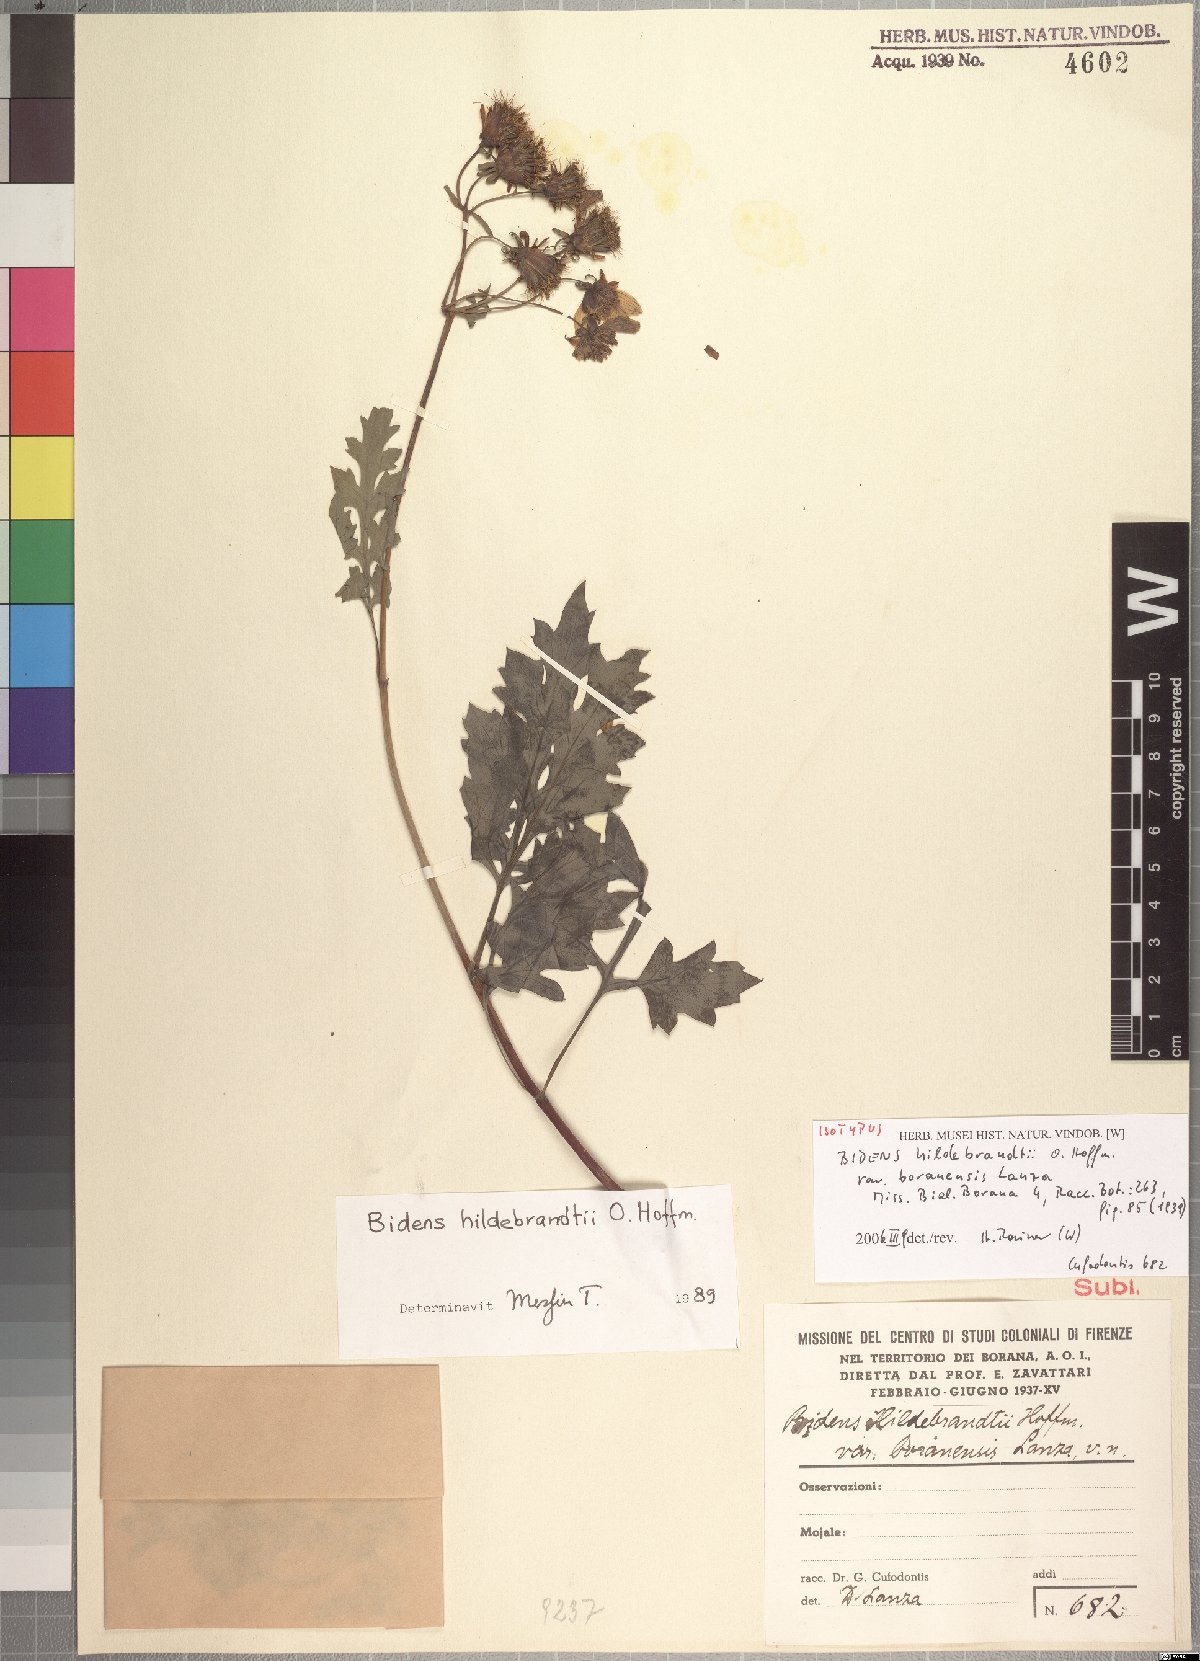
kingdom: Plantae
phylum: Tracheophyta
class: Magnoliopsida
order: Asterales
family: Asteraceae
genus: Bidens
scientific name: Bidens hildebrandtii
